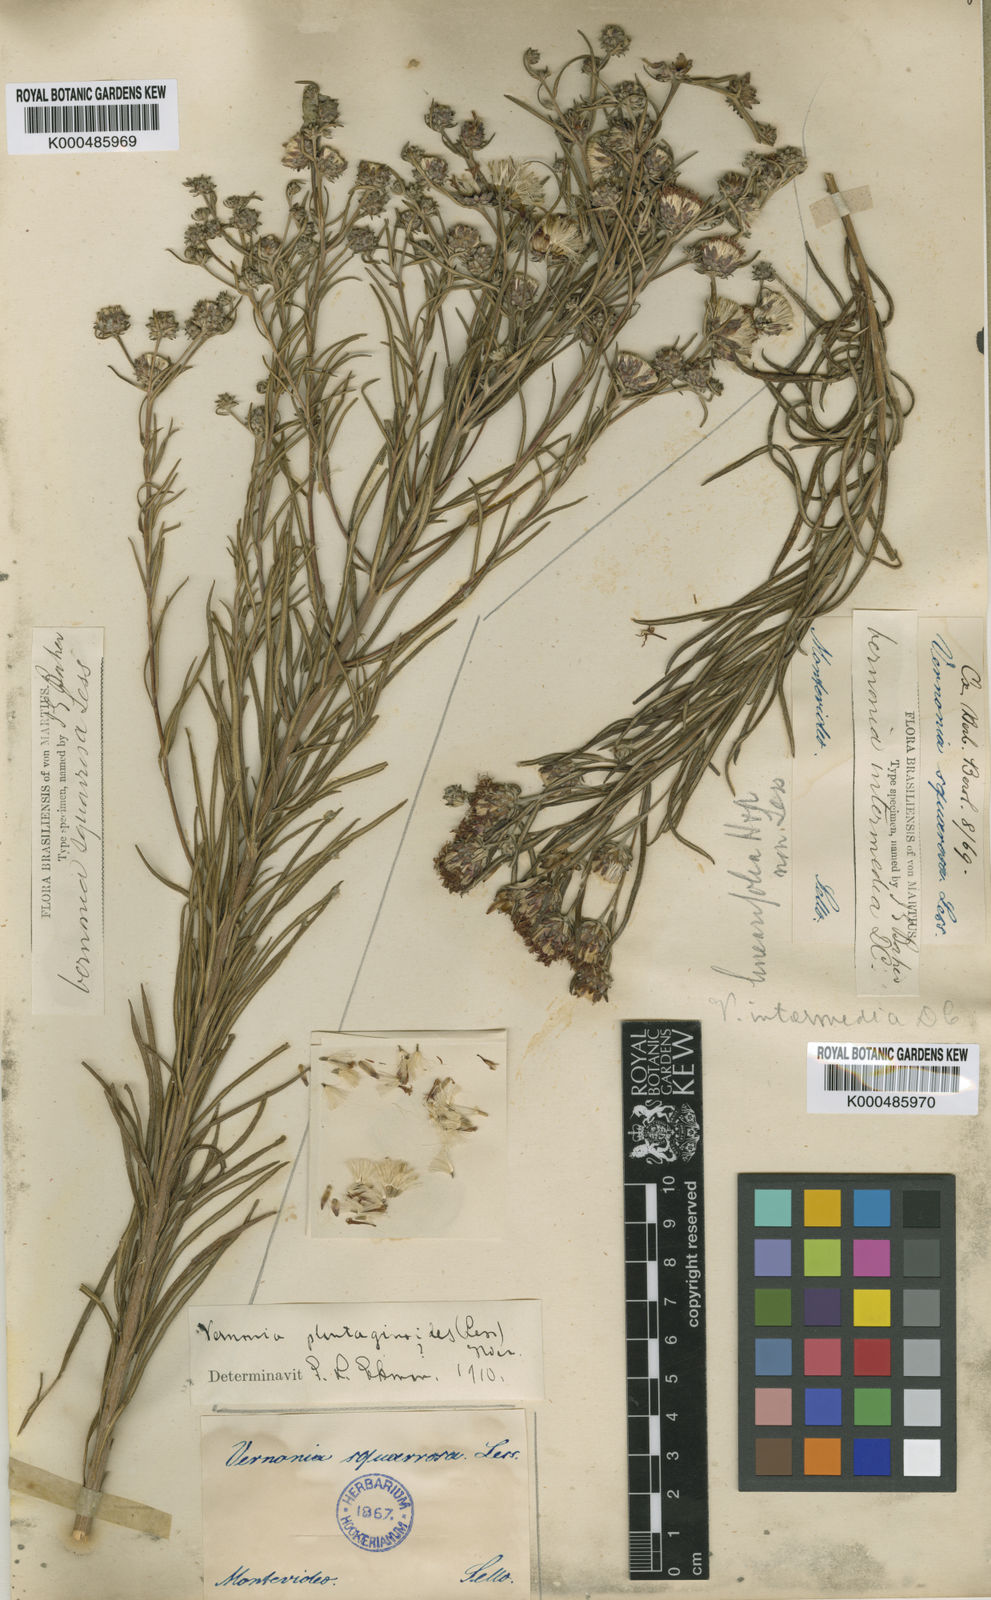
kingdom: Plantae
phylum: Tracheophyta
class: Magnoliopsida
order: Asterales
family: Asteraceae
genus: Lessingianthus
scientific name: Lessingianthus intermedius
